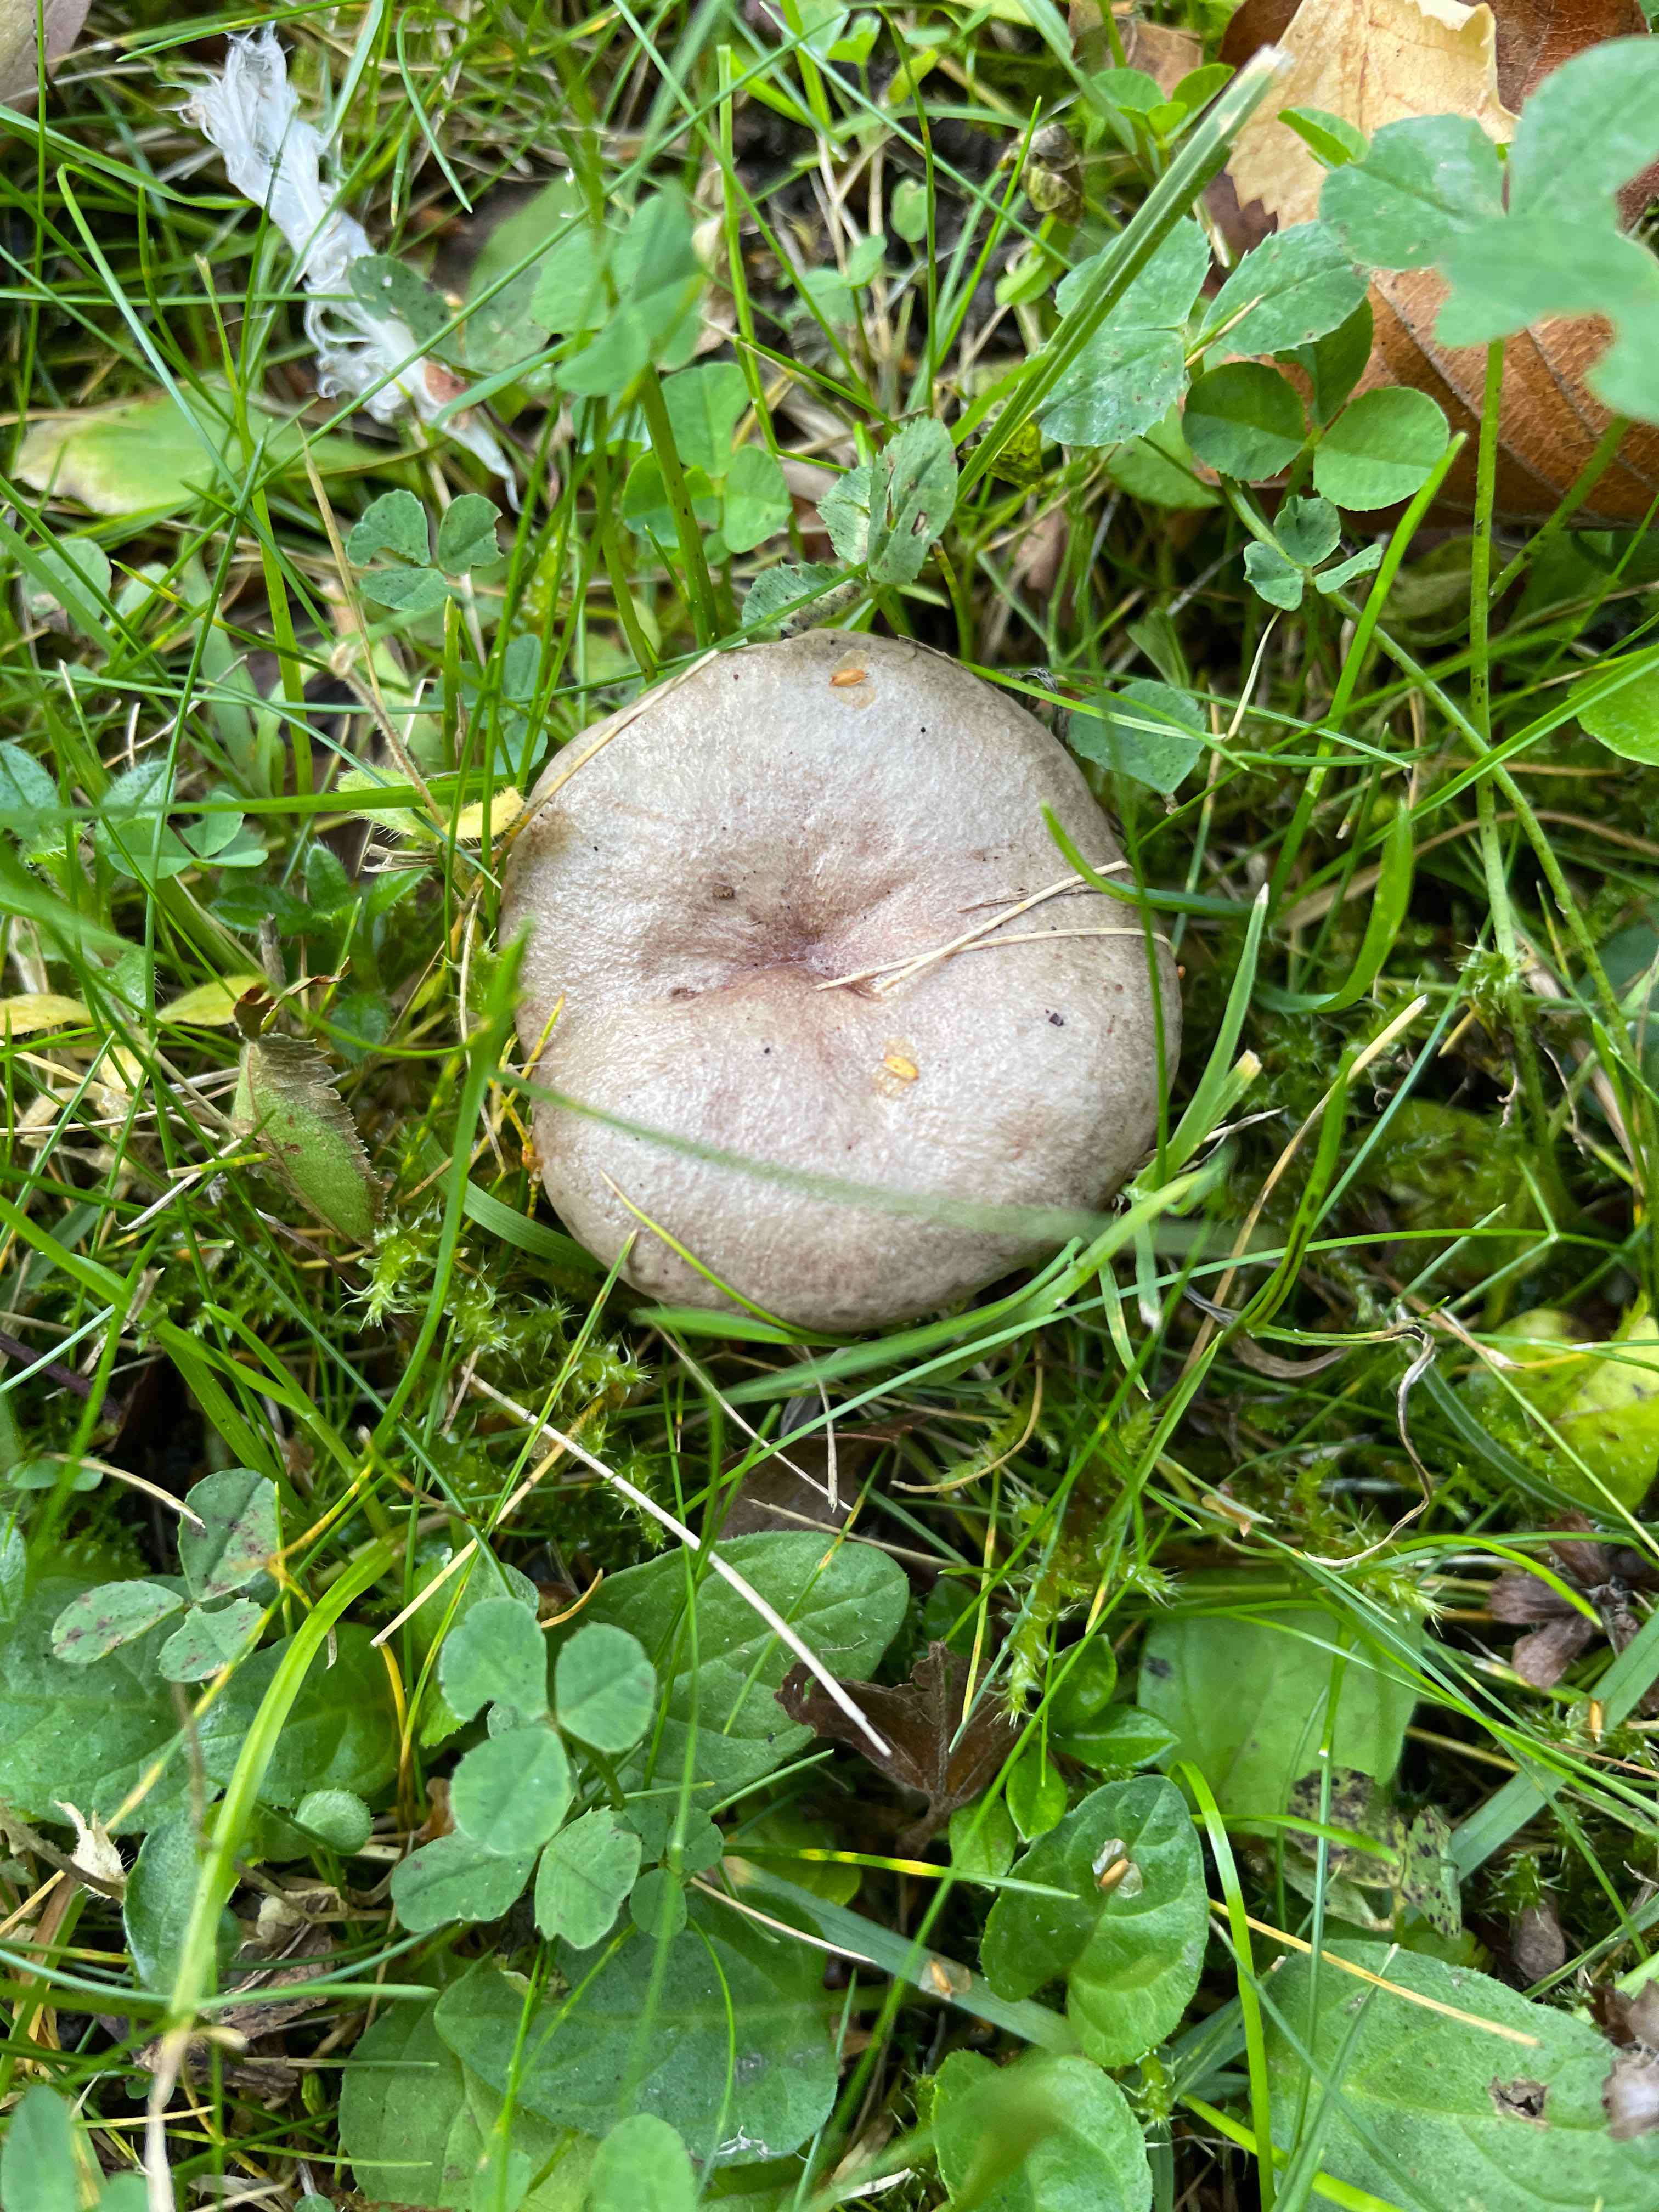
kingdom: Fungi
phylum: Basidiomycota
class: Agaricomycetes
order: Russulales
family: Russulaceae
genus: Lactarius
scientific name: Lactarius blennius
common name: dråbeplettet mælkehat
